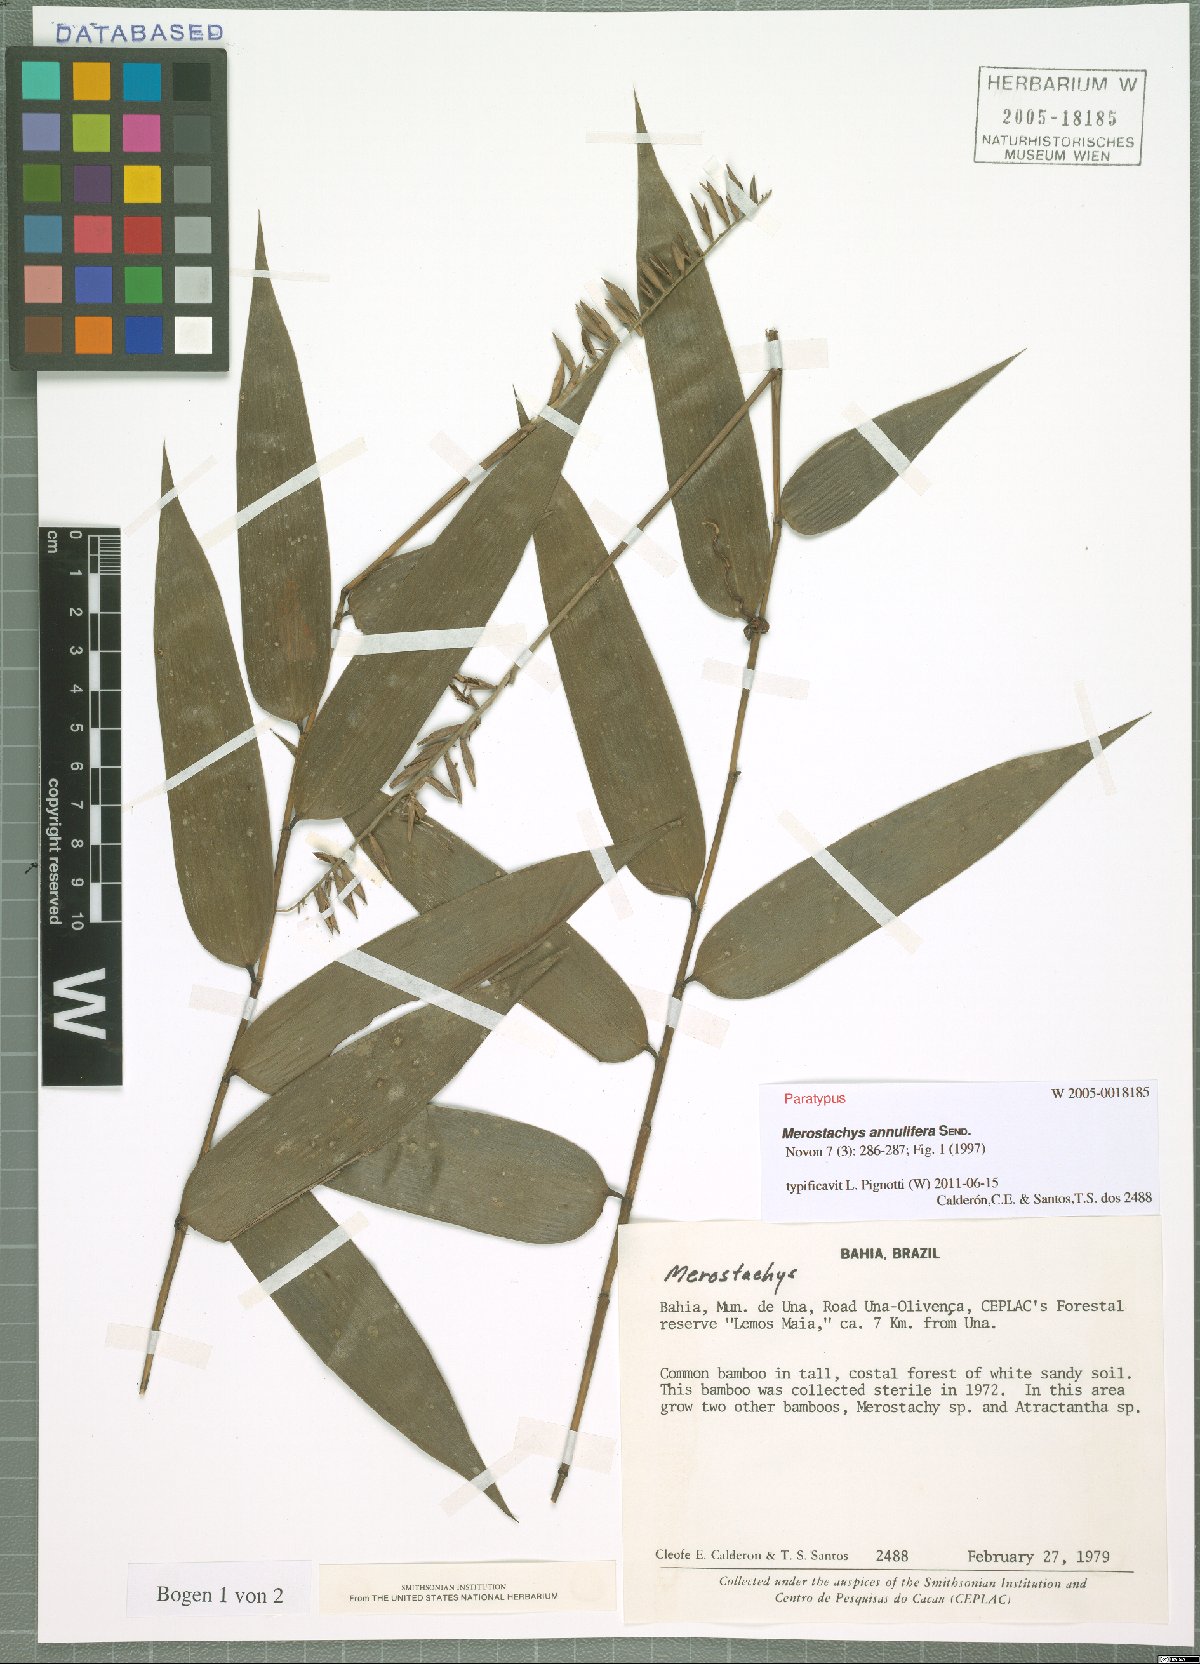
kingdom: Plantae
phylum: Tracheophyta
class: Liliopsida
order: Poales
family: Poaceae
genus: Merostachys
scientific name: Merostachys annulifera
